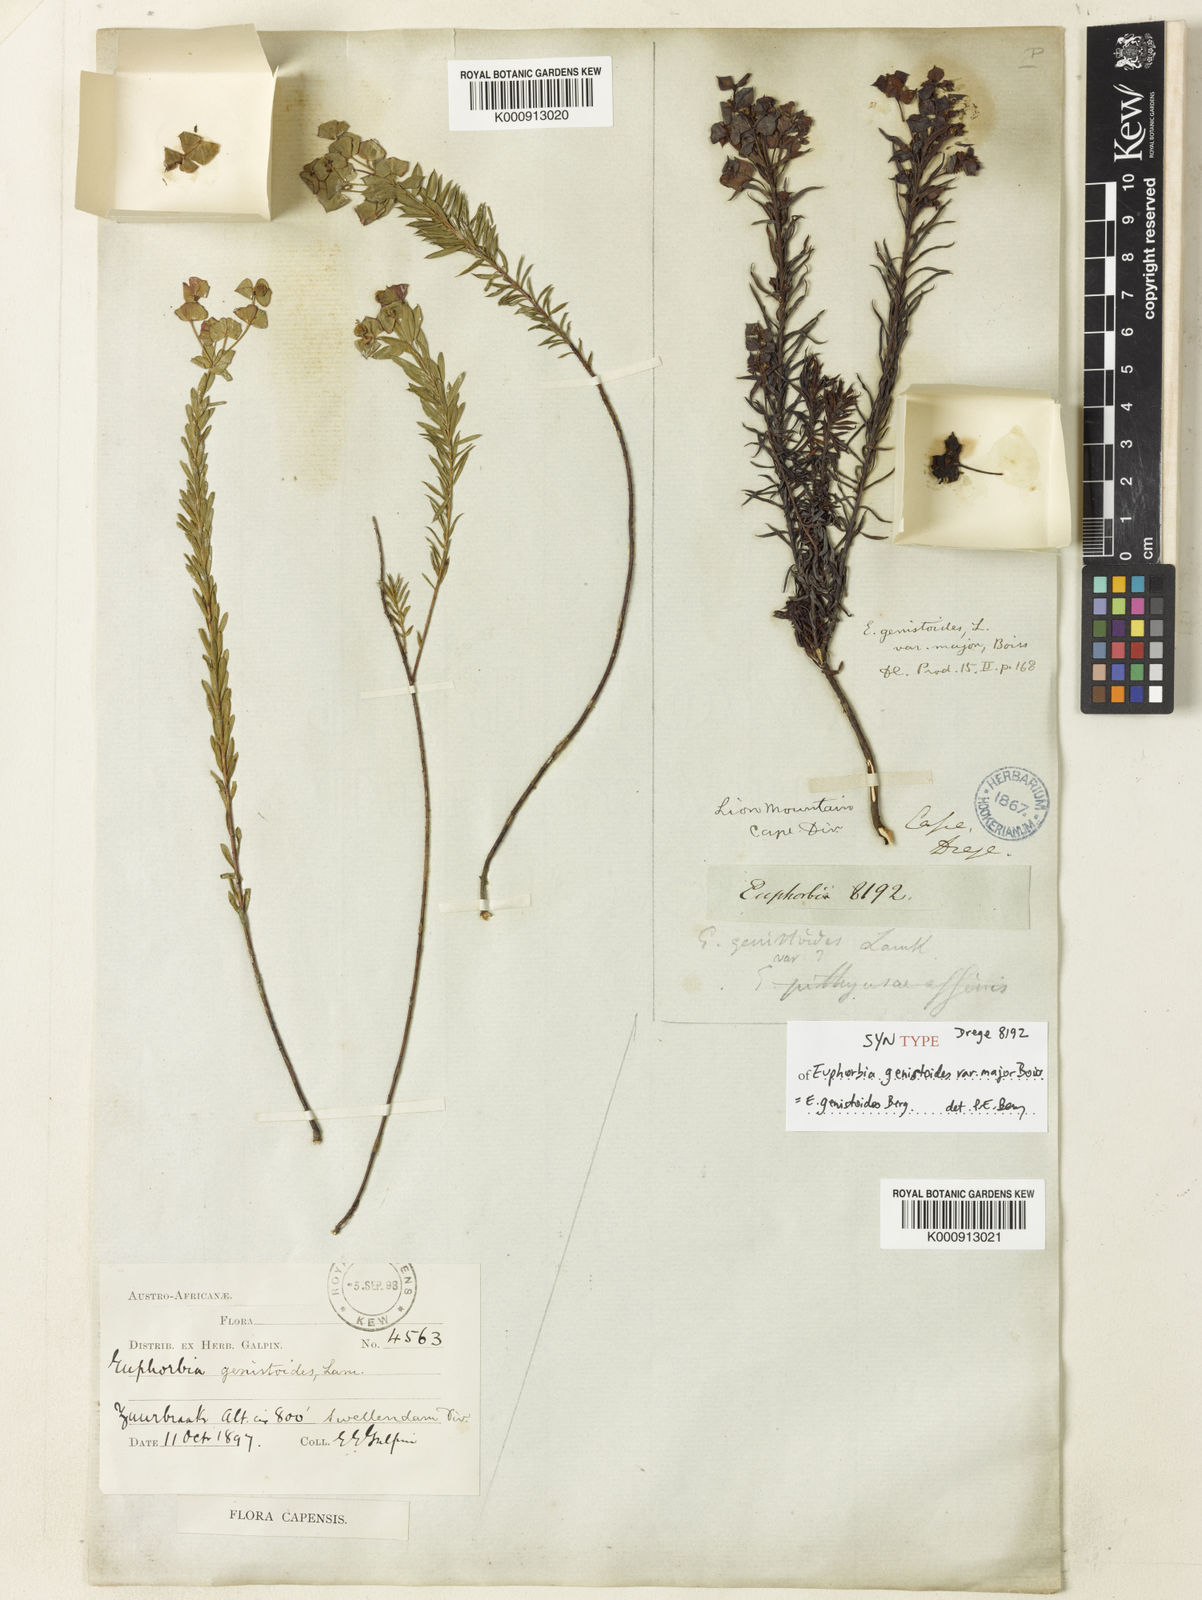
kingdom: Plantae
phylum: Tracheophyta
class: Magnoliopsida
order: Malpighiales
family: Euphorbiaceae
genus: Euphorbia
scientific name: Euphorbia genistoides
